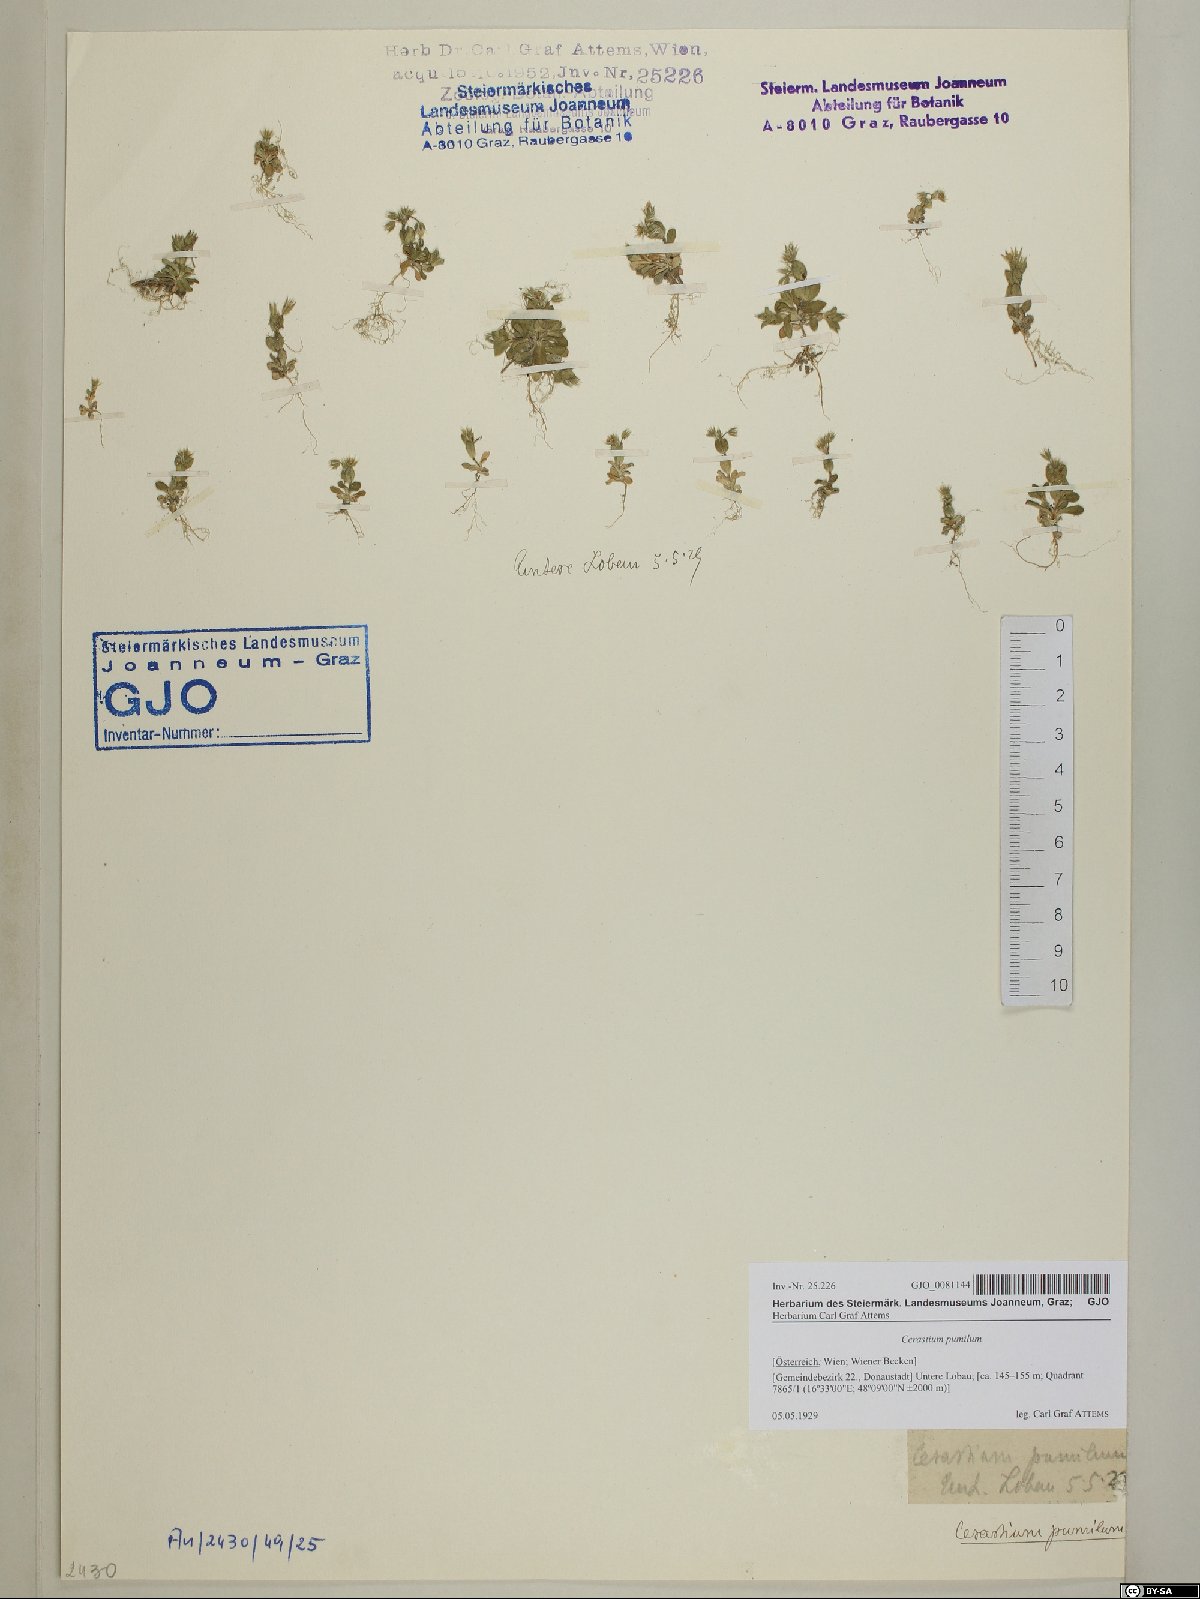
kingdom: Plantae
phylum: Tracheophyta
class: Magnoliopsida
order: Caryophyllales
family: Caryophyllaceae
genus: Cerastium
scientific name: Cerastium pumilum
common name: Dwarf mouse-ear
